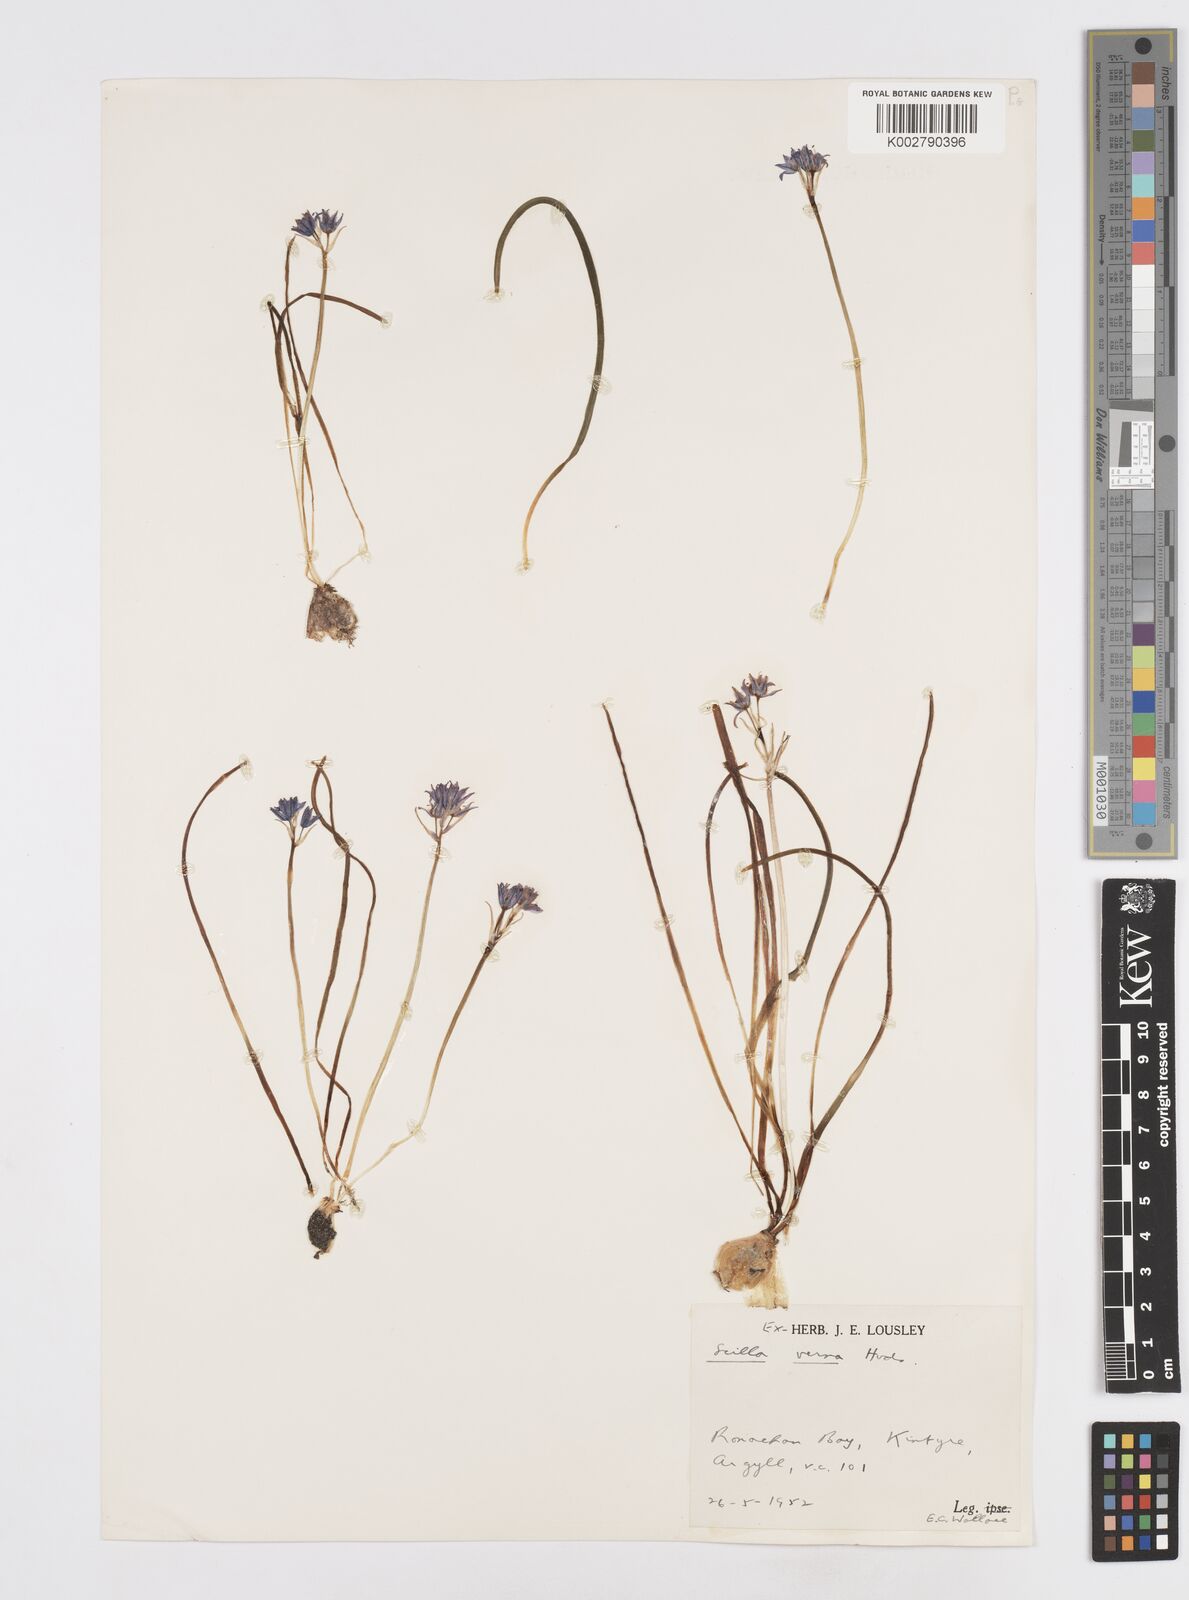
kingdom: Plantae
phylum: Tracheophyta
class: Liliopsida
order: Asparagales
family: Asparagaceae
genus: Scilla
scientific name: Scilla verna
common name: Spring squill
